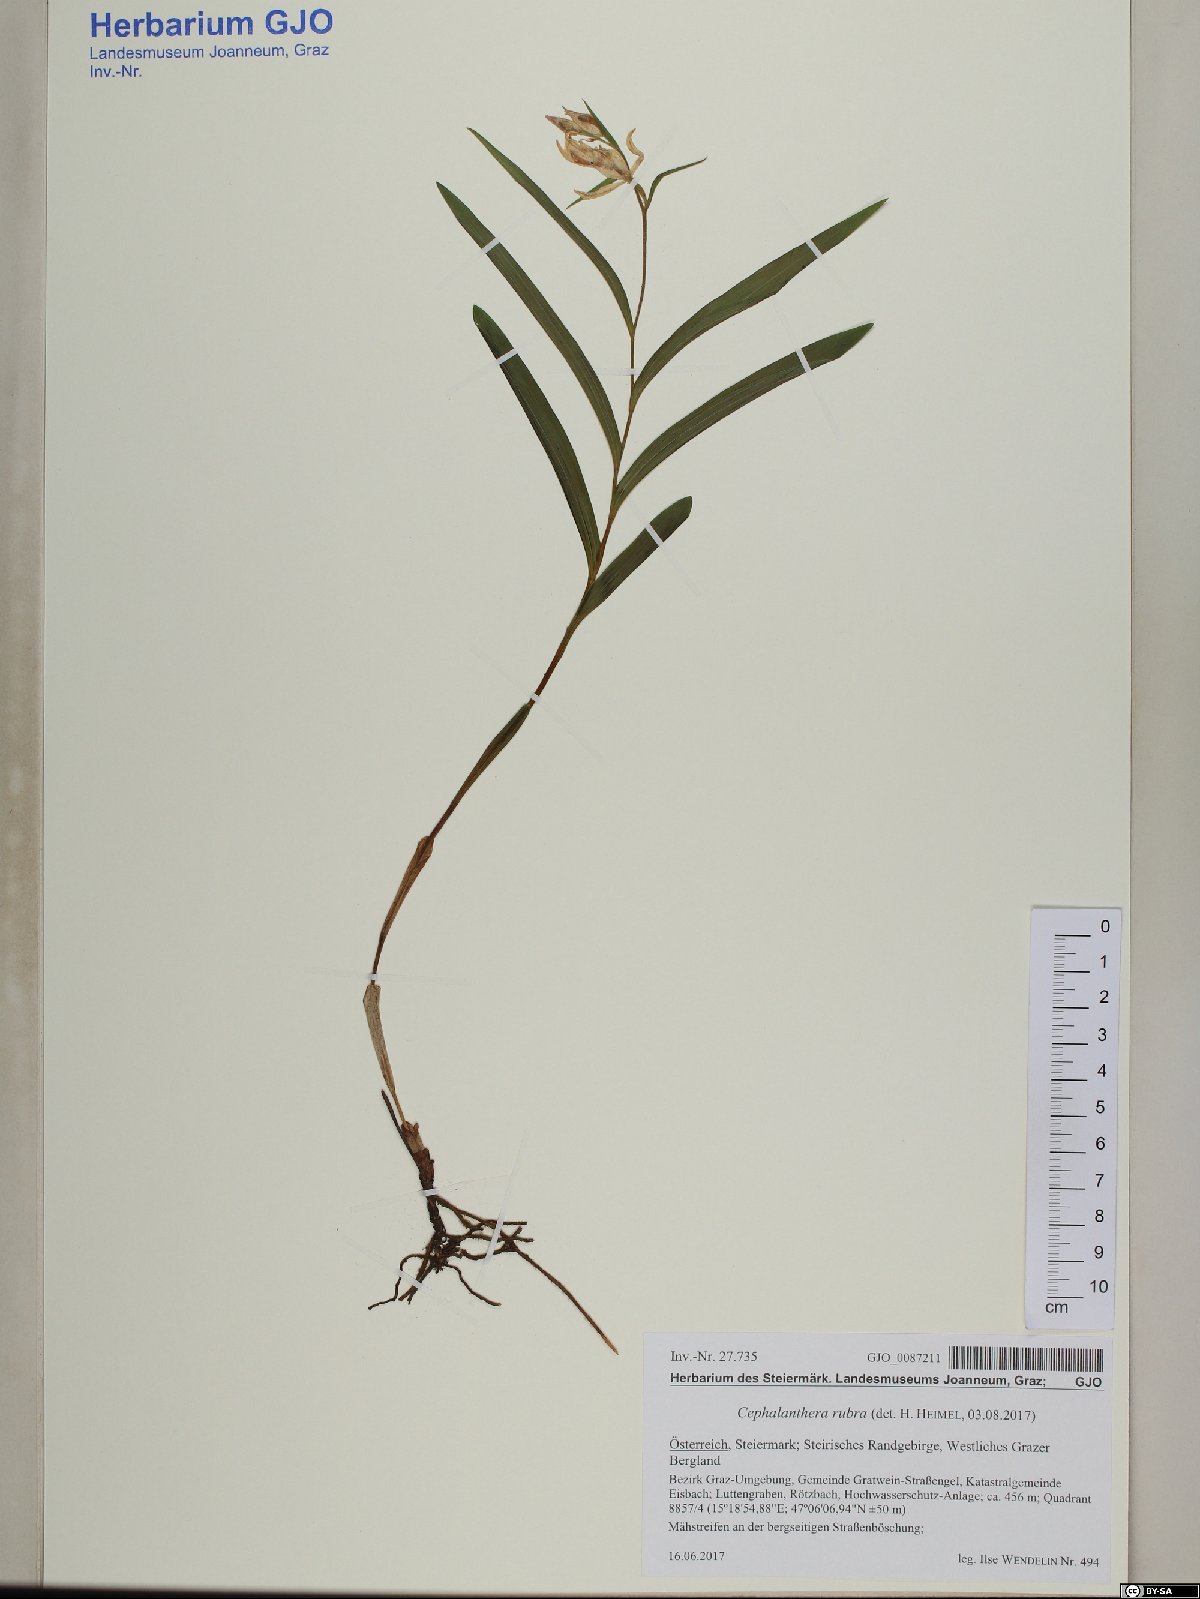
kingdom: Plantae
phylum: Tracheophyta
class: Liliopsida
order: Asparagales
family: Orchidaceae
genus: Cephalanthera
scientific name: Cephalanthera rubra
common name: Red helleborine
